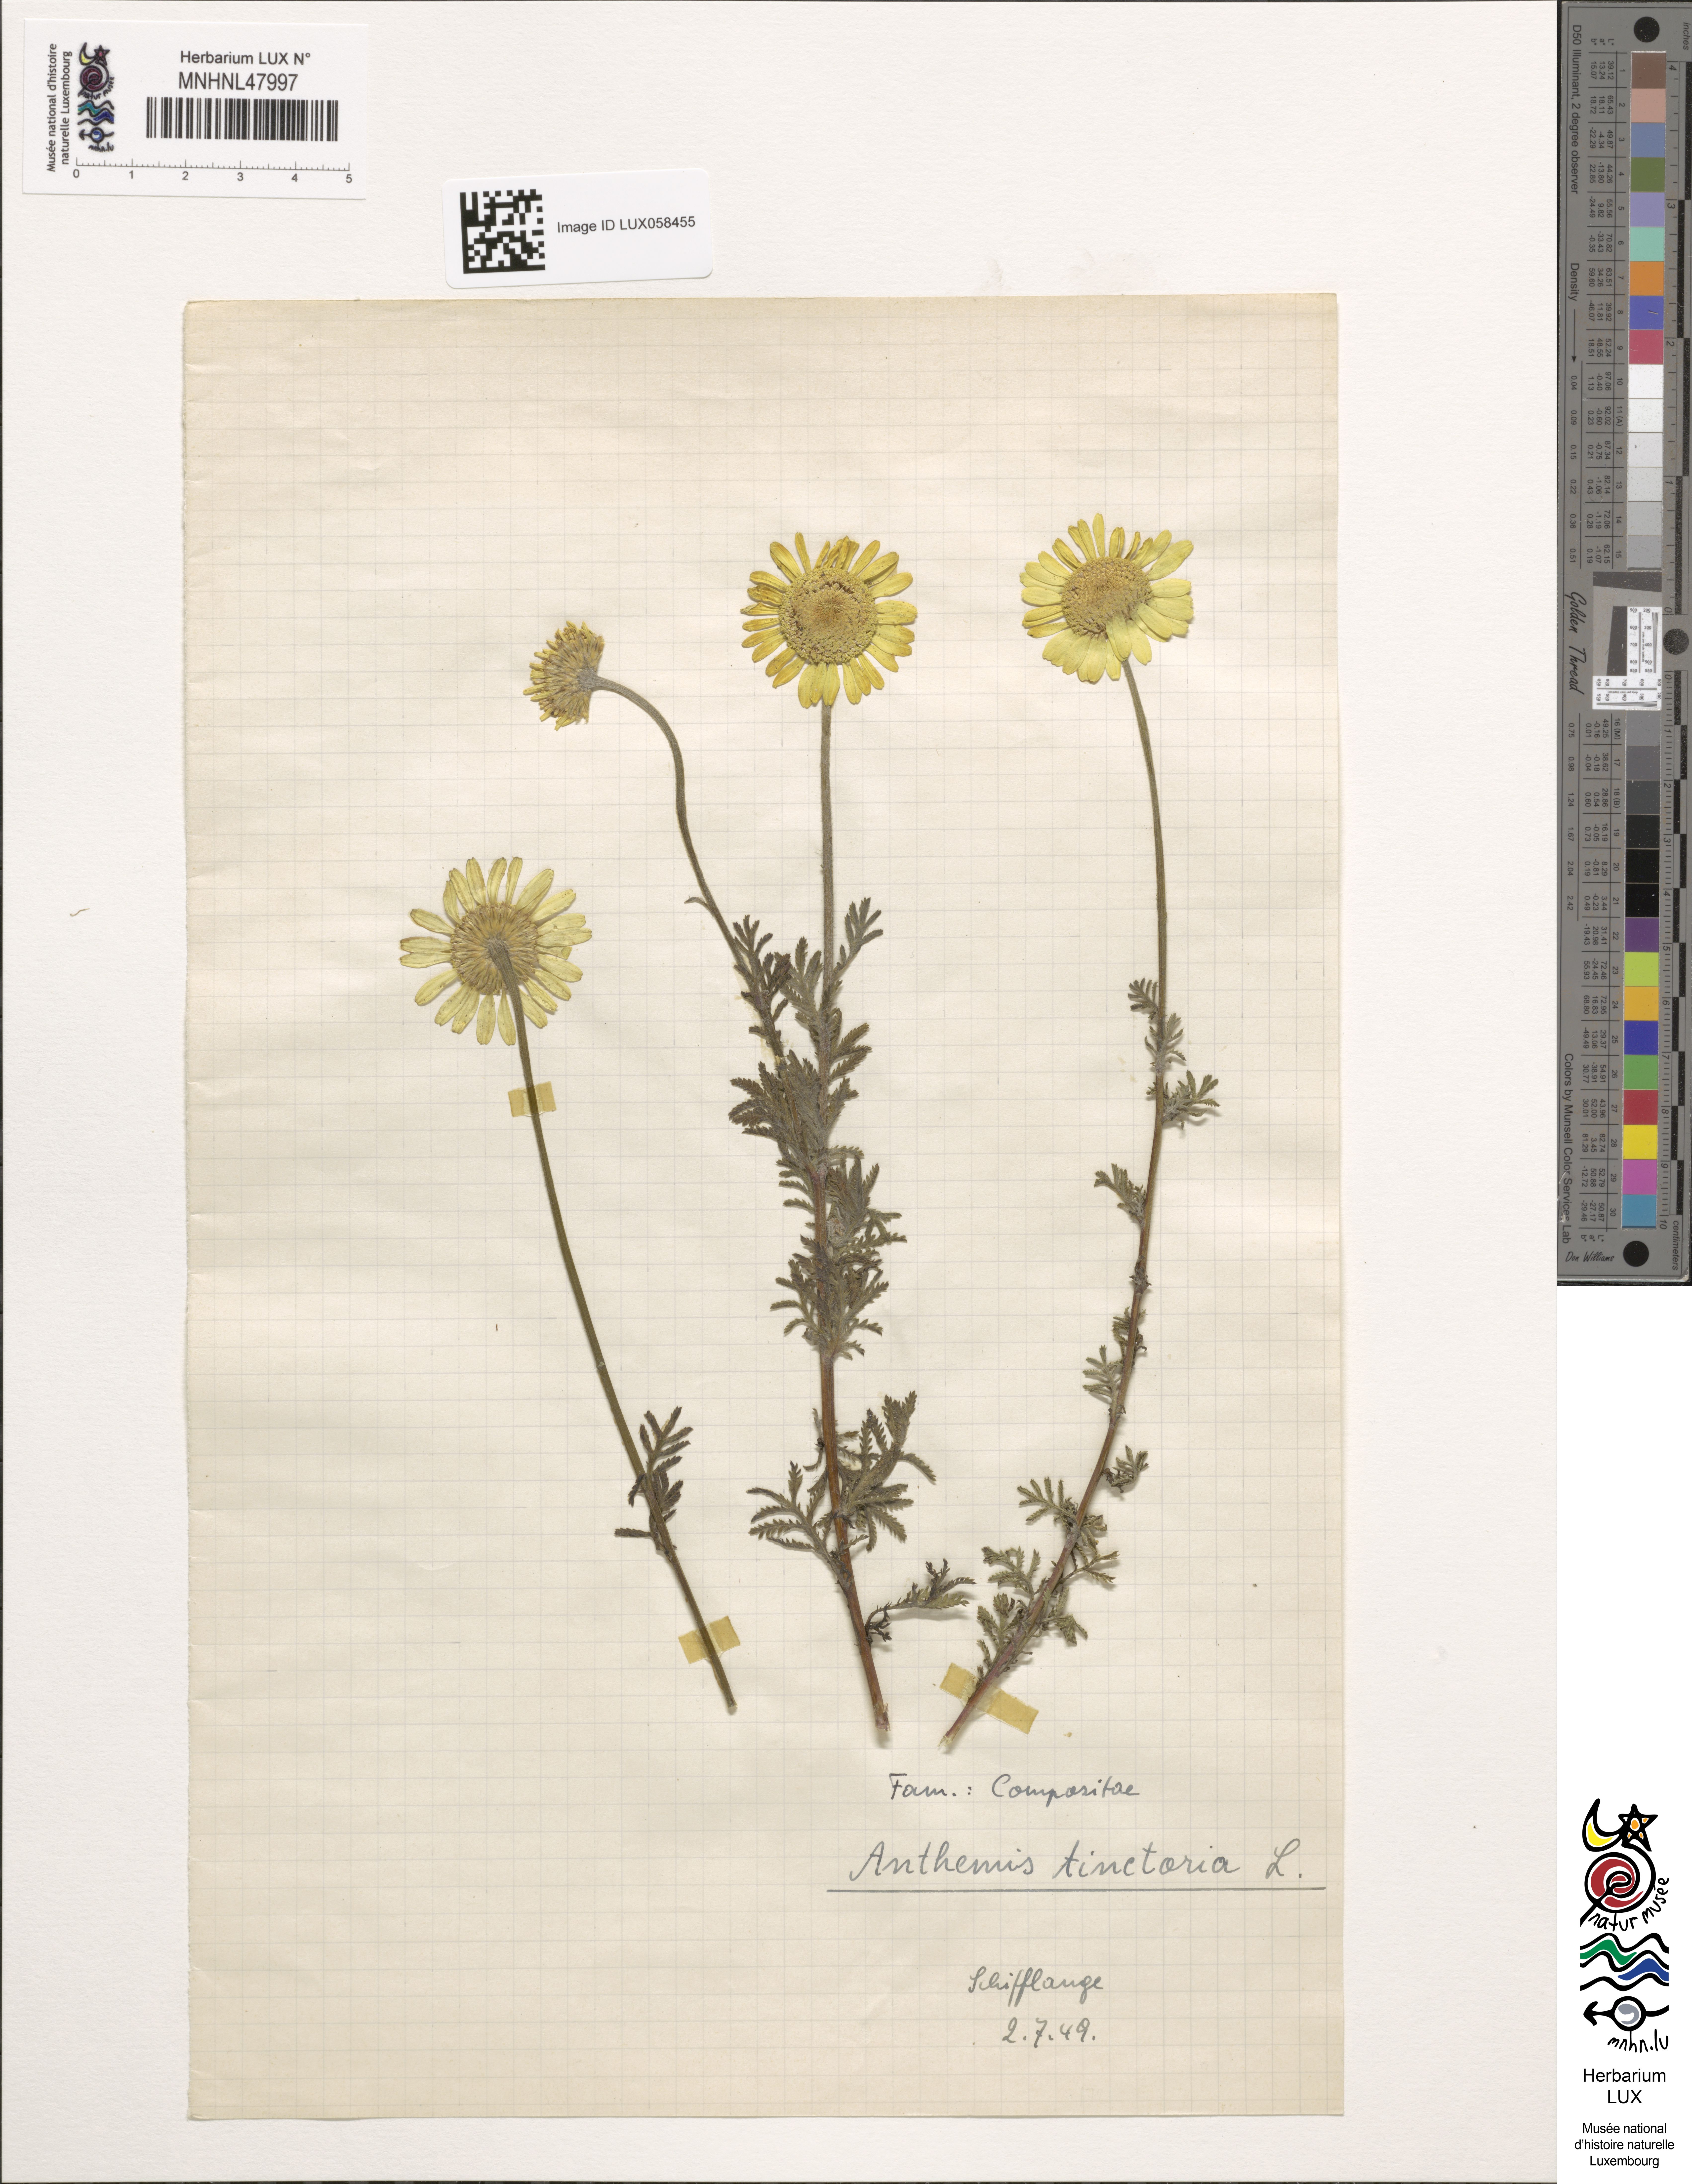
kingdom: Plantae
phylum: Tracheophyta
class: Magnoliopsida
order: Asterales
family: Asteraceae
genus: Cota
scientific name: Cota tinctoria
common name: Golden chamomile
